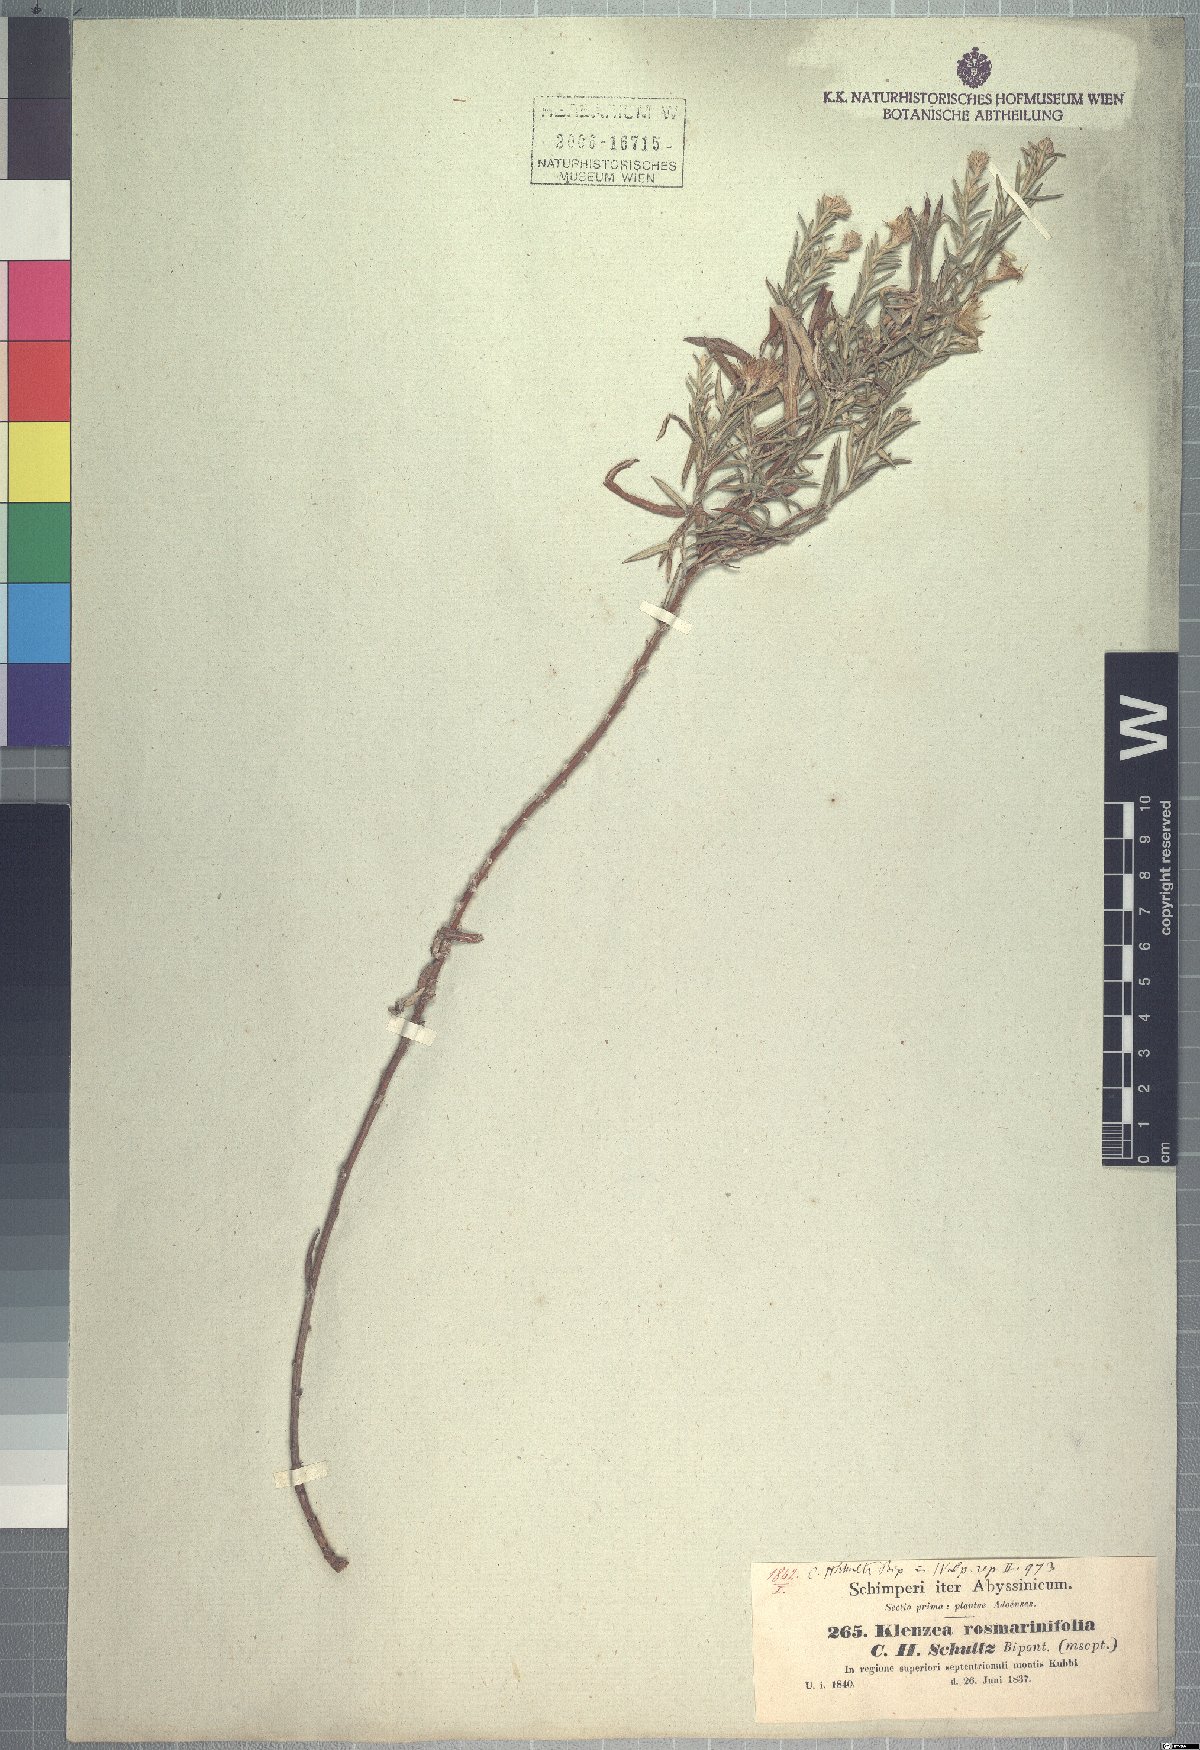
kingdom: Plantae
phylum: Tracheophyta
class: Magnoliopsida
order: Asterales
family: Asteraceae
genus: Athrixia
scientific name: Athrixia rosmarinifolia
